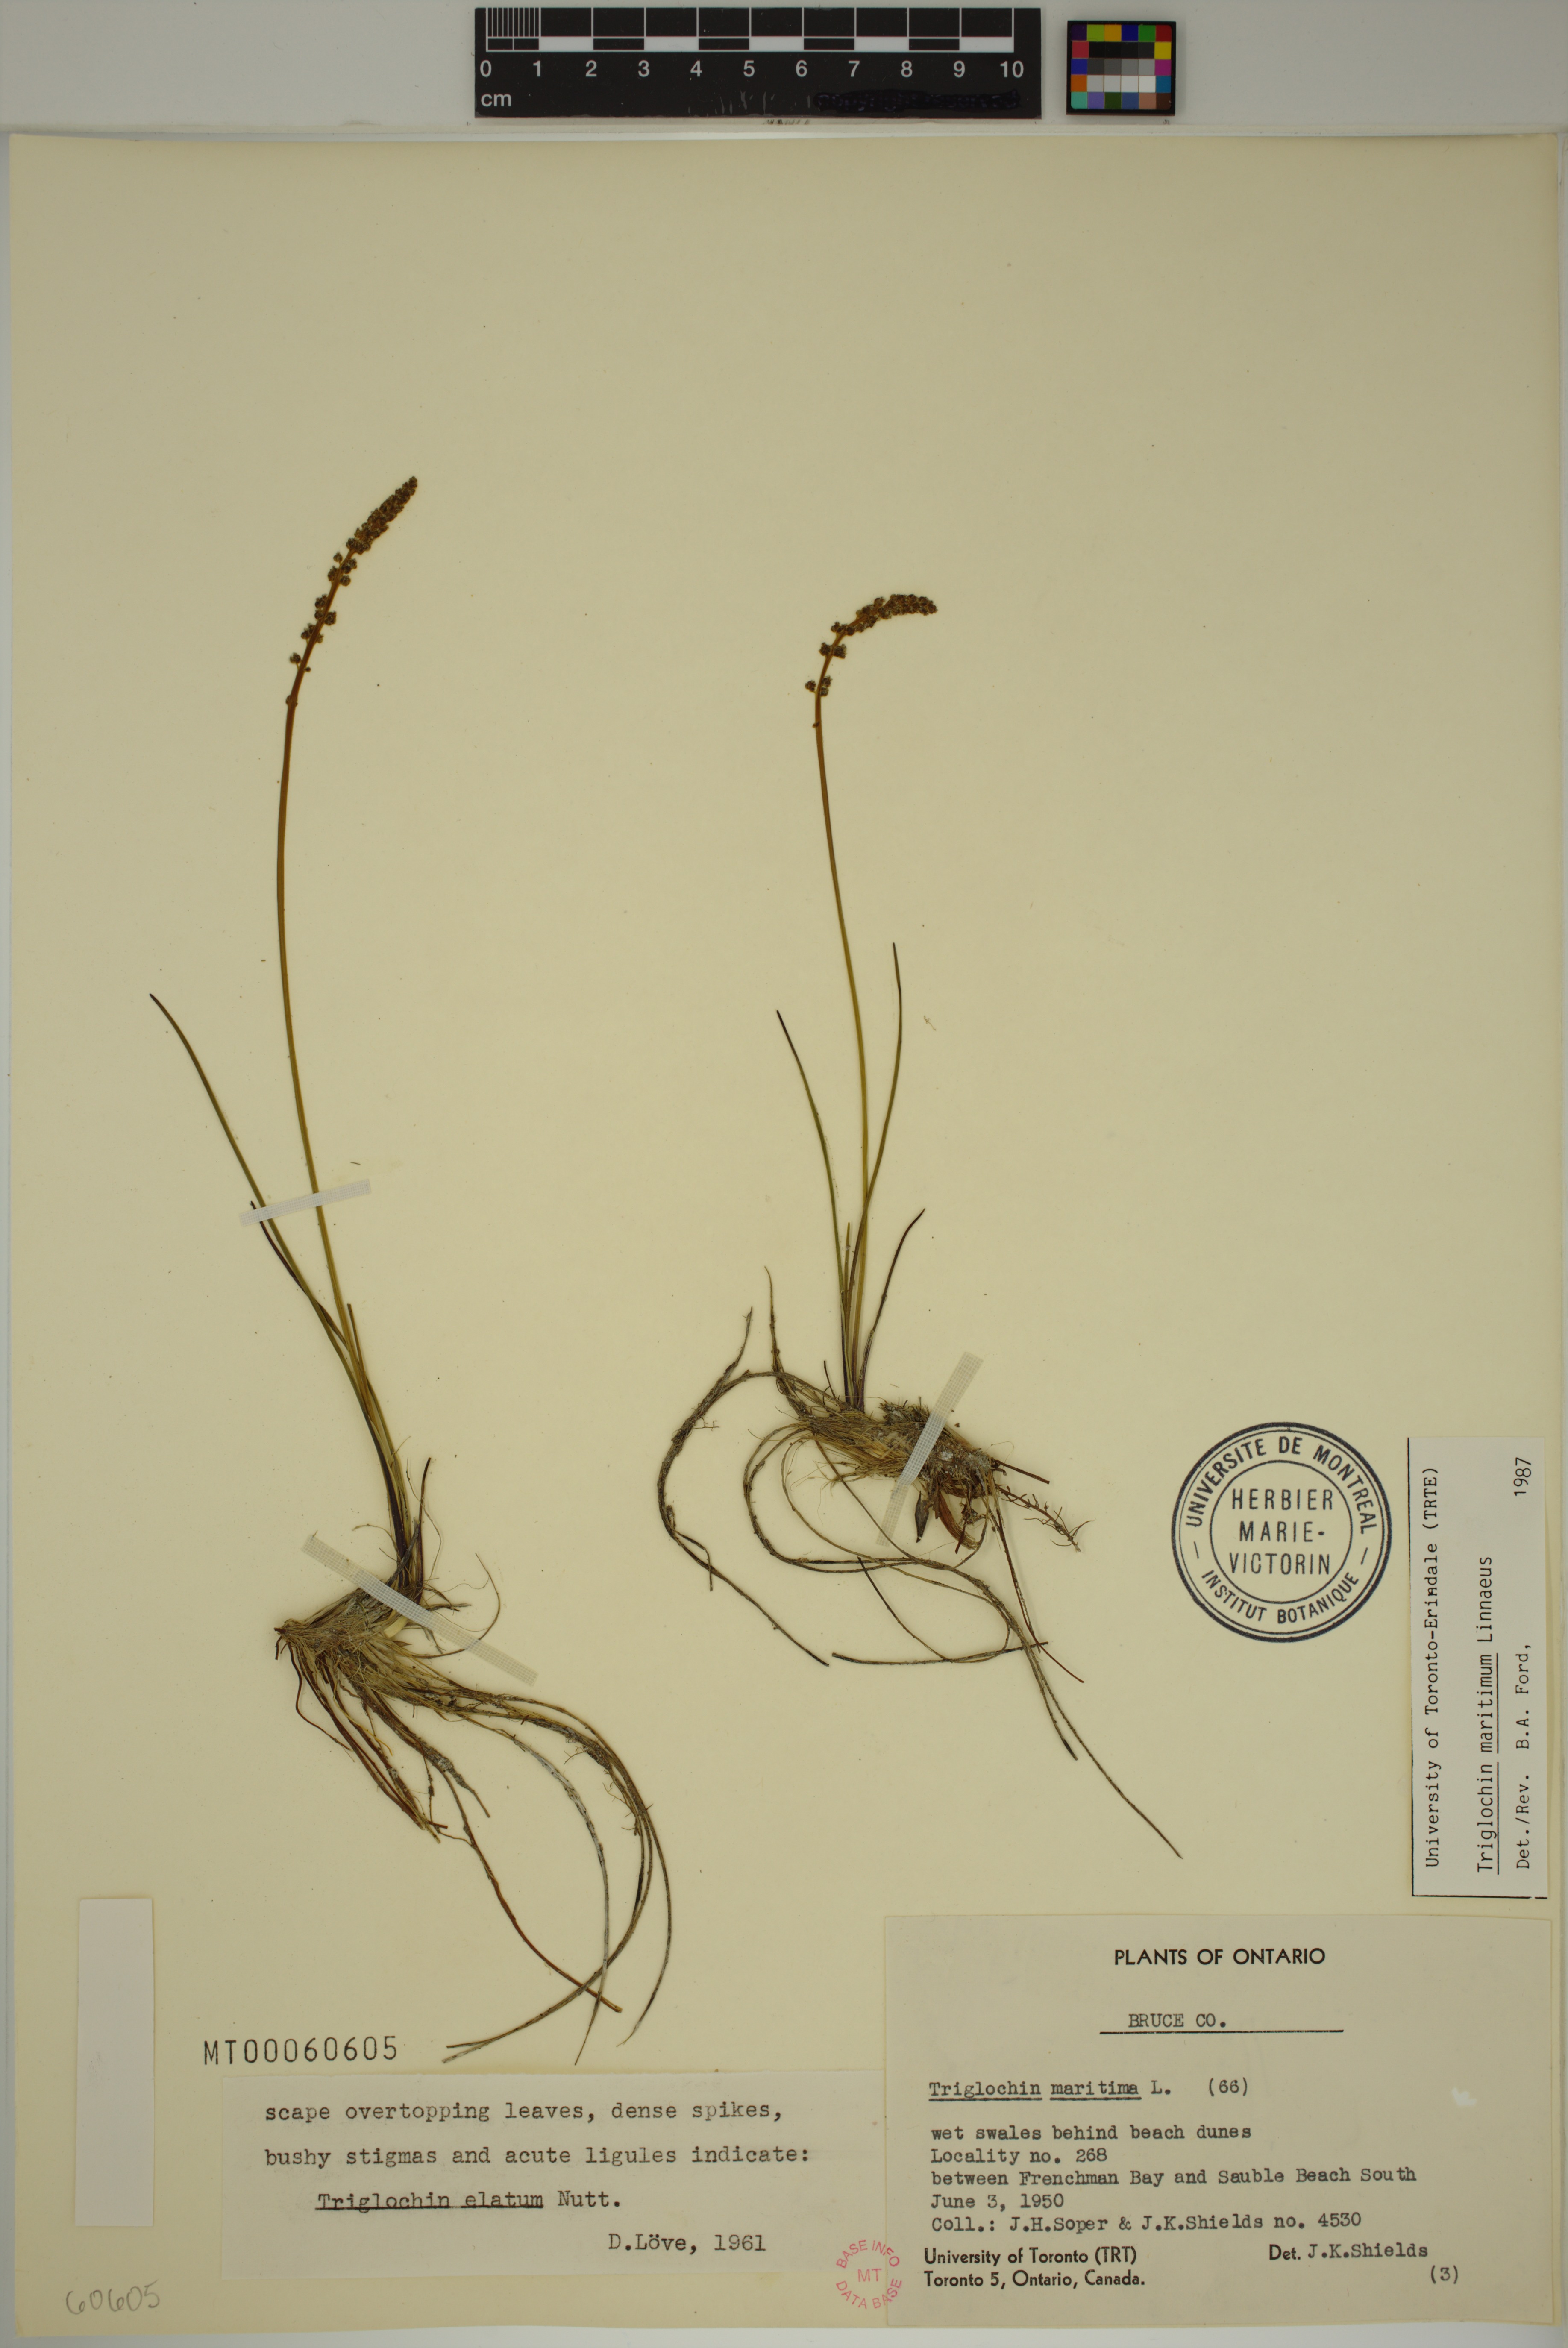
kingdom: Plantae
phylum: Tracheophyta
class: Liliopsida
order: Alismatales
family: Juncaginaceae
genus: Triglochin
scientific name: Triglochin maritima
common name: Sea arrowgrass
